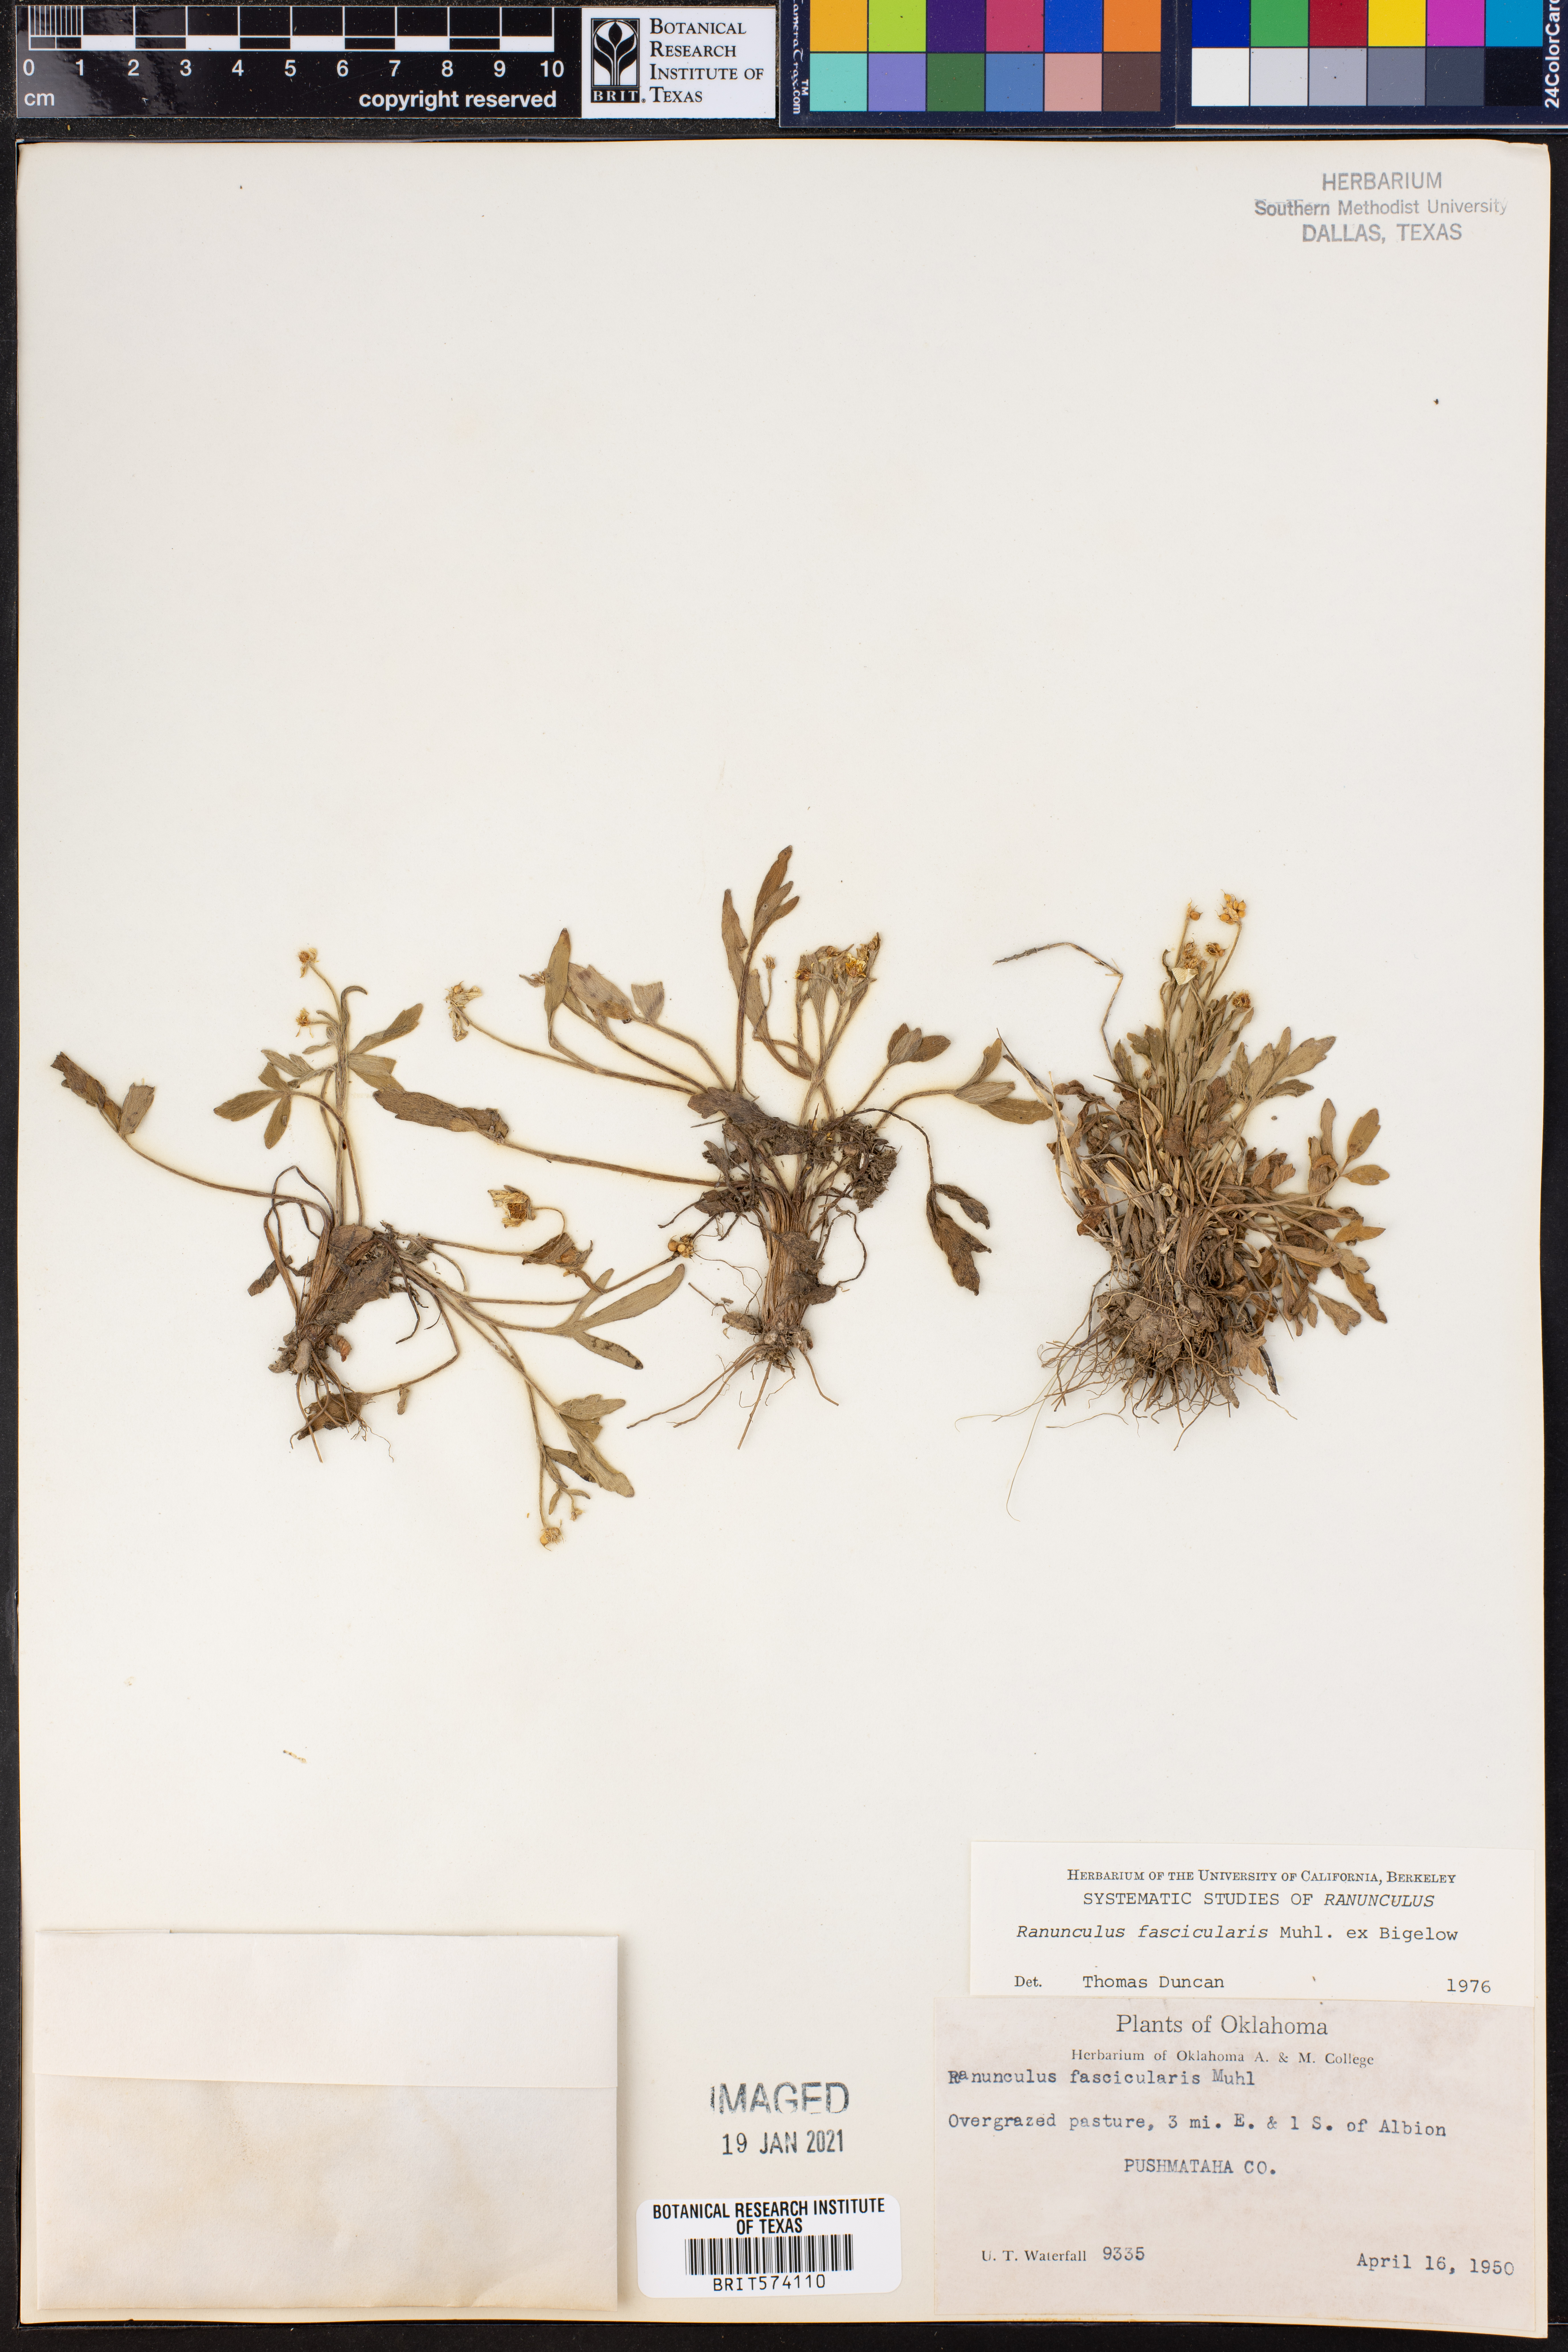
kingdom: Plantae
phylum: Tracheophyta
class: Magnoliopsida
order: Ranunculales
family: Ranunculaceae
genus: Ranunculus
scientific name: Ranunculus fascicularis
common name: Early buttercup
